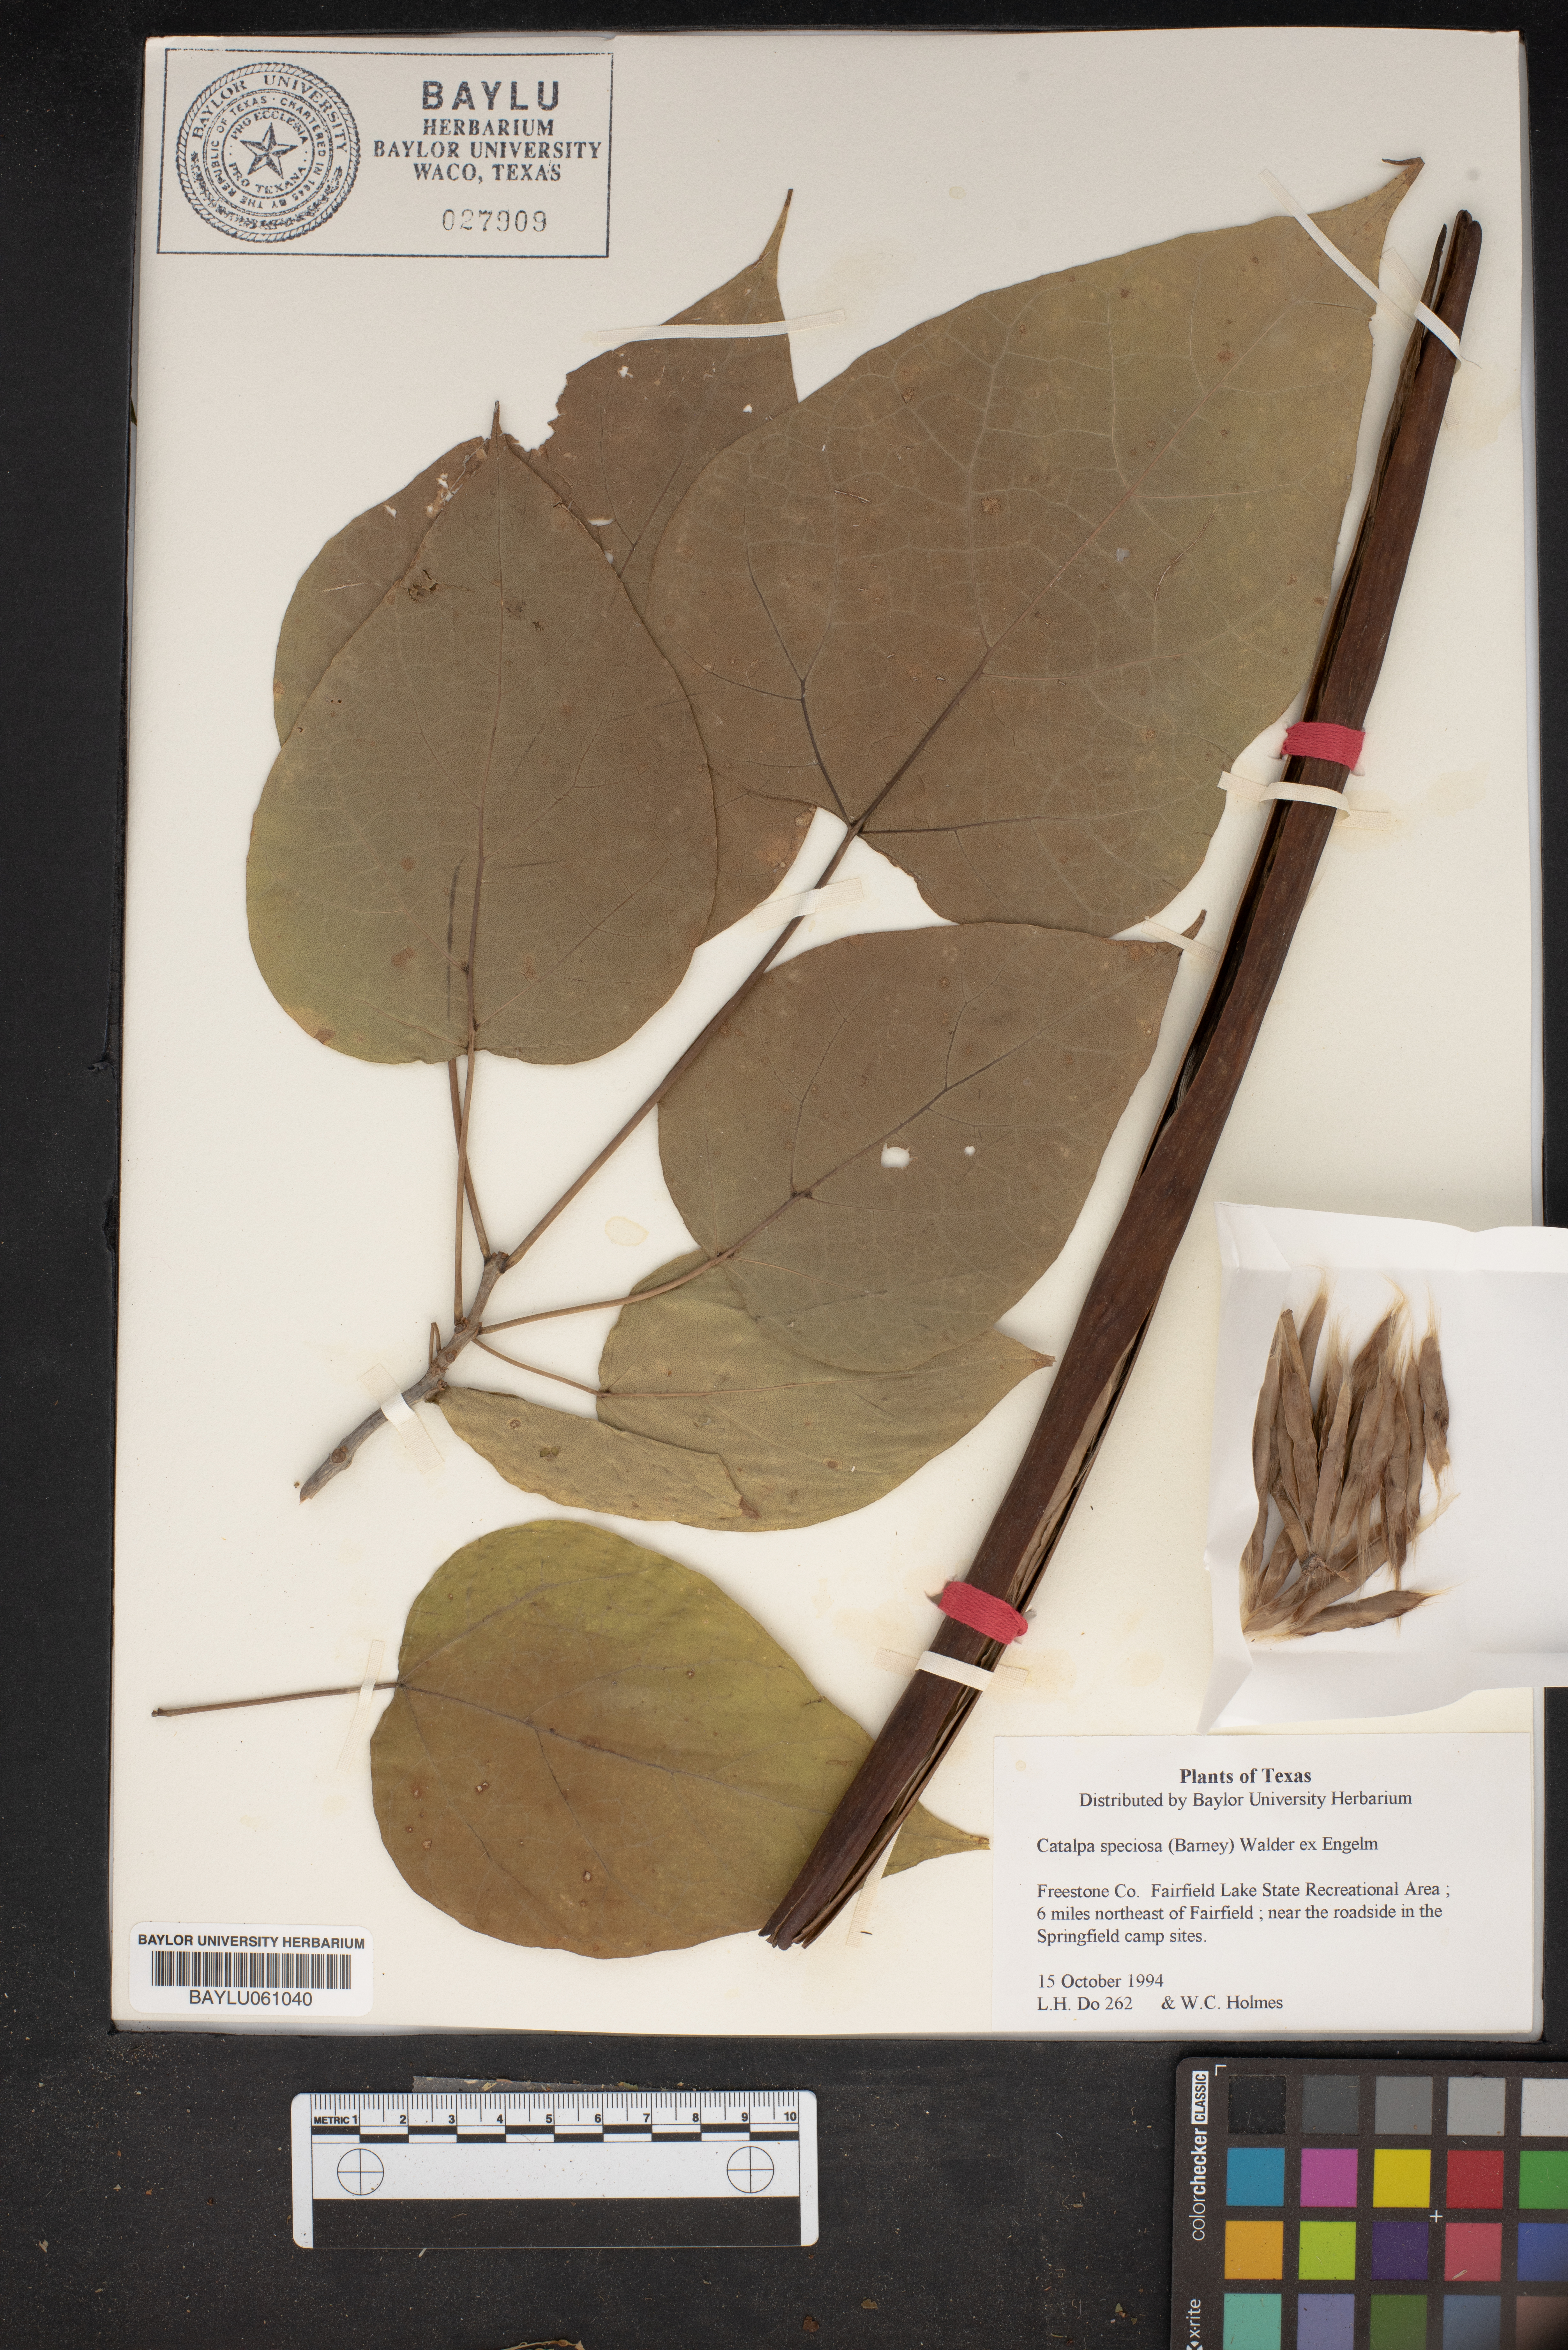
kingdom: Plantae
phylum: Tracheophyta
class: Magnoliopsida
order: Lamiales
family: Bignoniaceae
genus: Catalpa
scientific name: Catalpa speciosa
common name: Northern catalpa
